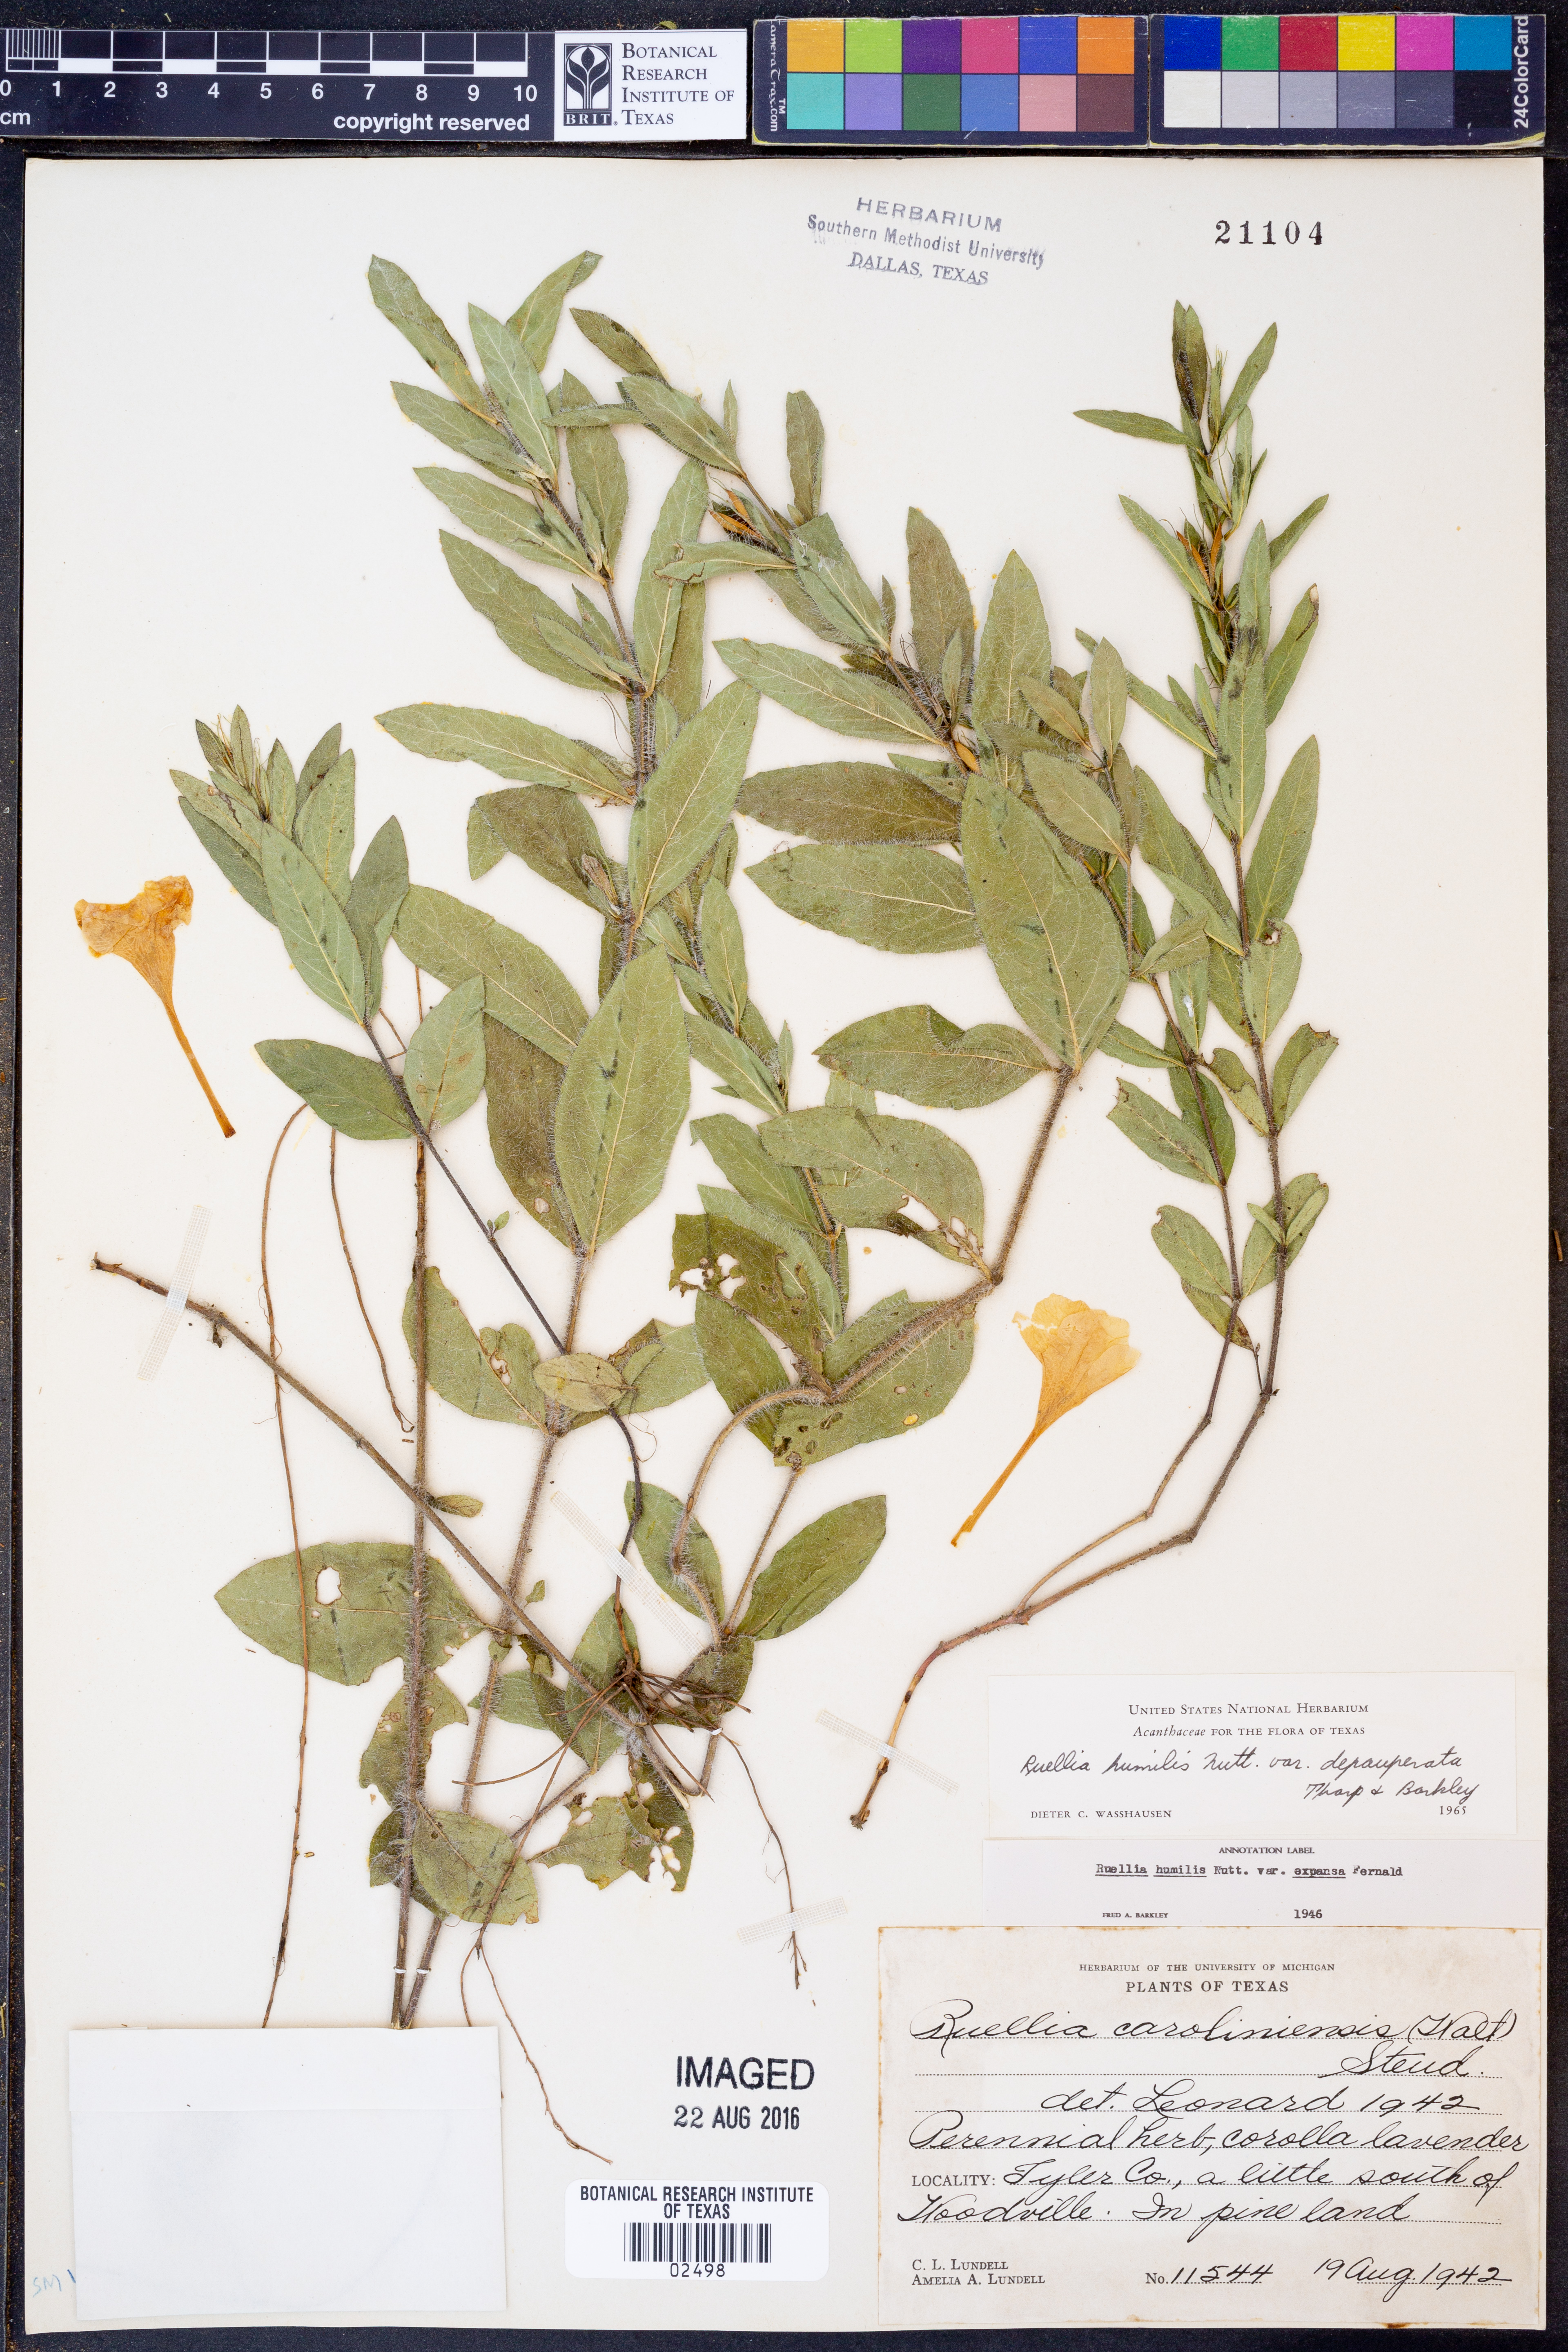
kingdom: Plantae
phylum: Tracheophyta
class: Magnoliopsida
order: Lamiales
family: Acanthaceae
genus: Ruellia
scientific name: Ruellia humilis
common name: Fringe-leaf ruellia
